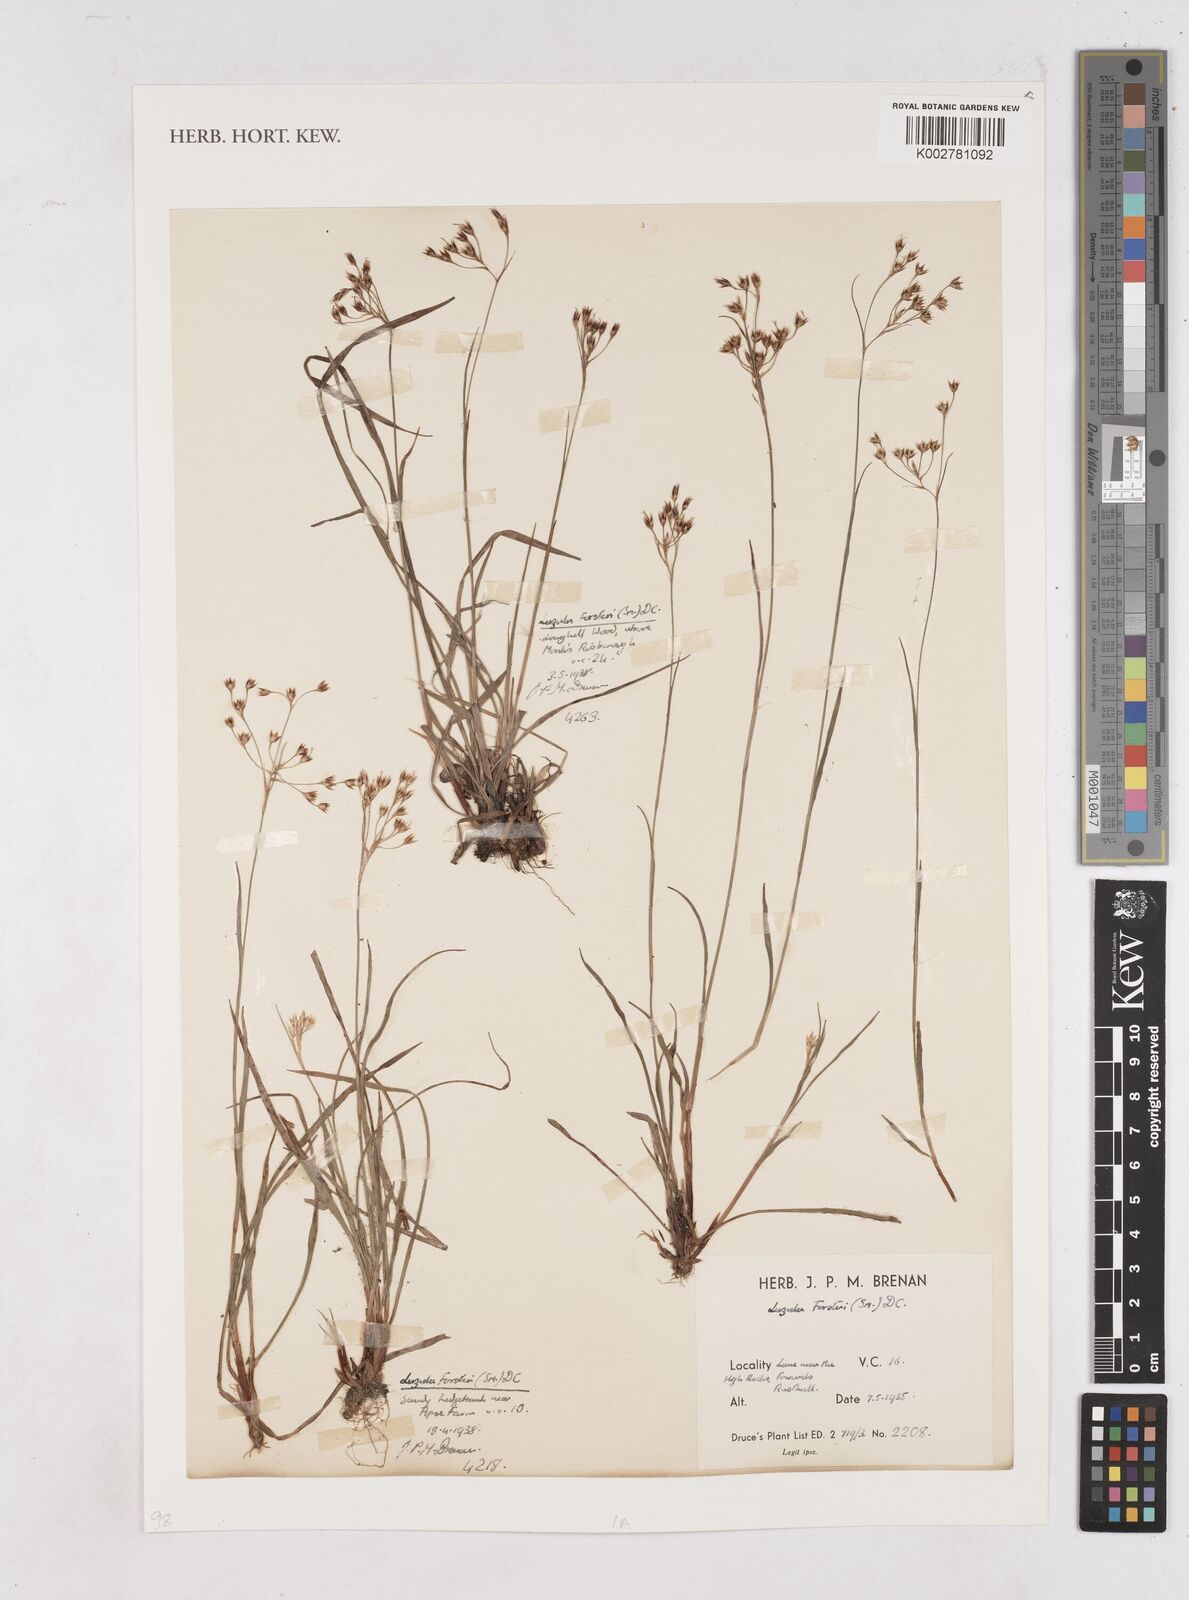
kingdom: Plantae
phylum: Tracheophyta
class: Liliopsida
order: Poales
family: Juncaceae
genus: Luzula
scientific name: Luzula forsteri
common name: Southern wood-rush
